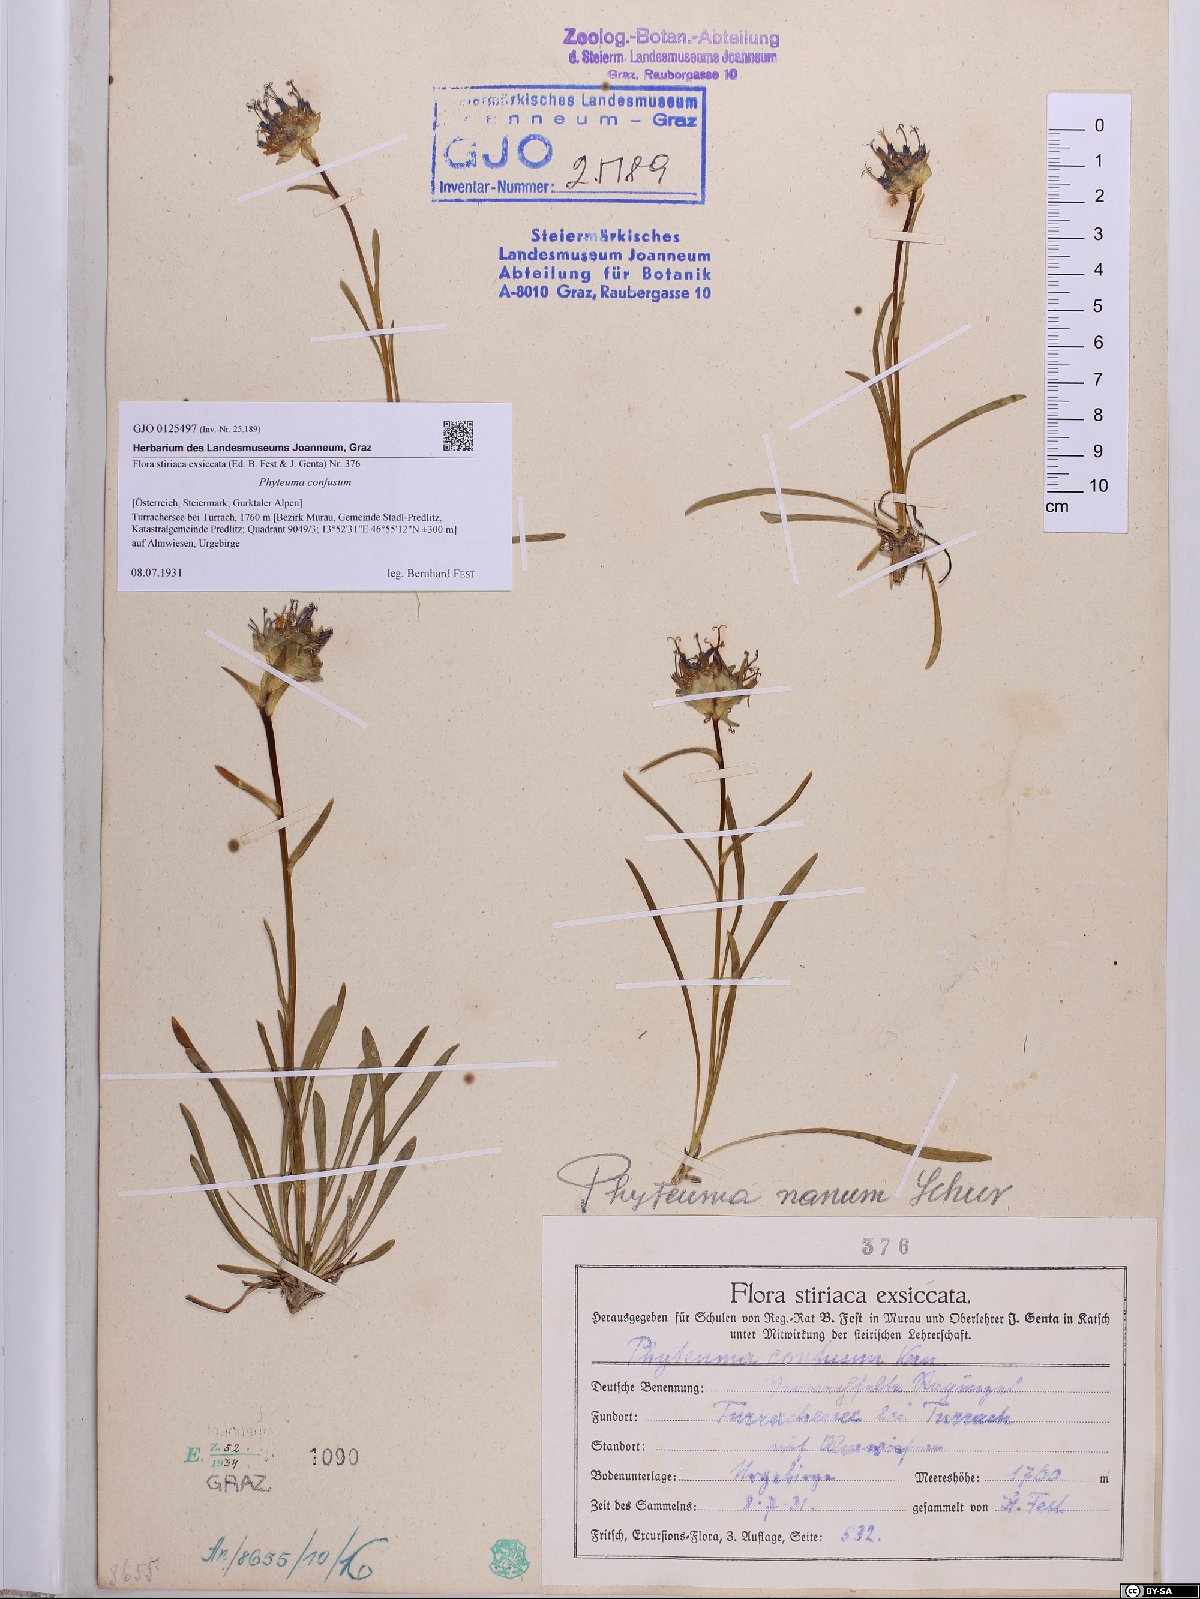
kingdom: Plantae
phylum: Tracheophyta
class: Magnoliopsida
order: Asterales
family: Campanulaceae
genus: Phyteuma
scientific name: Phyteuma confusum
